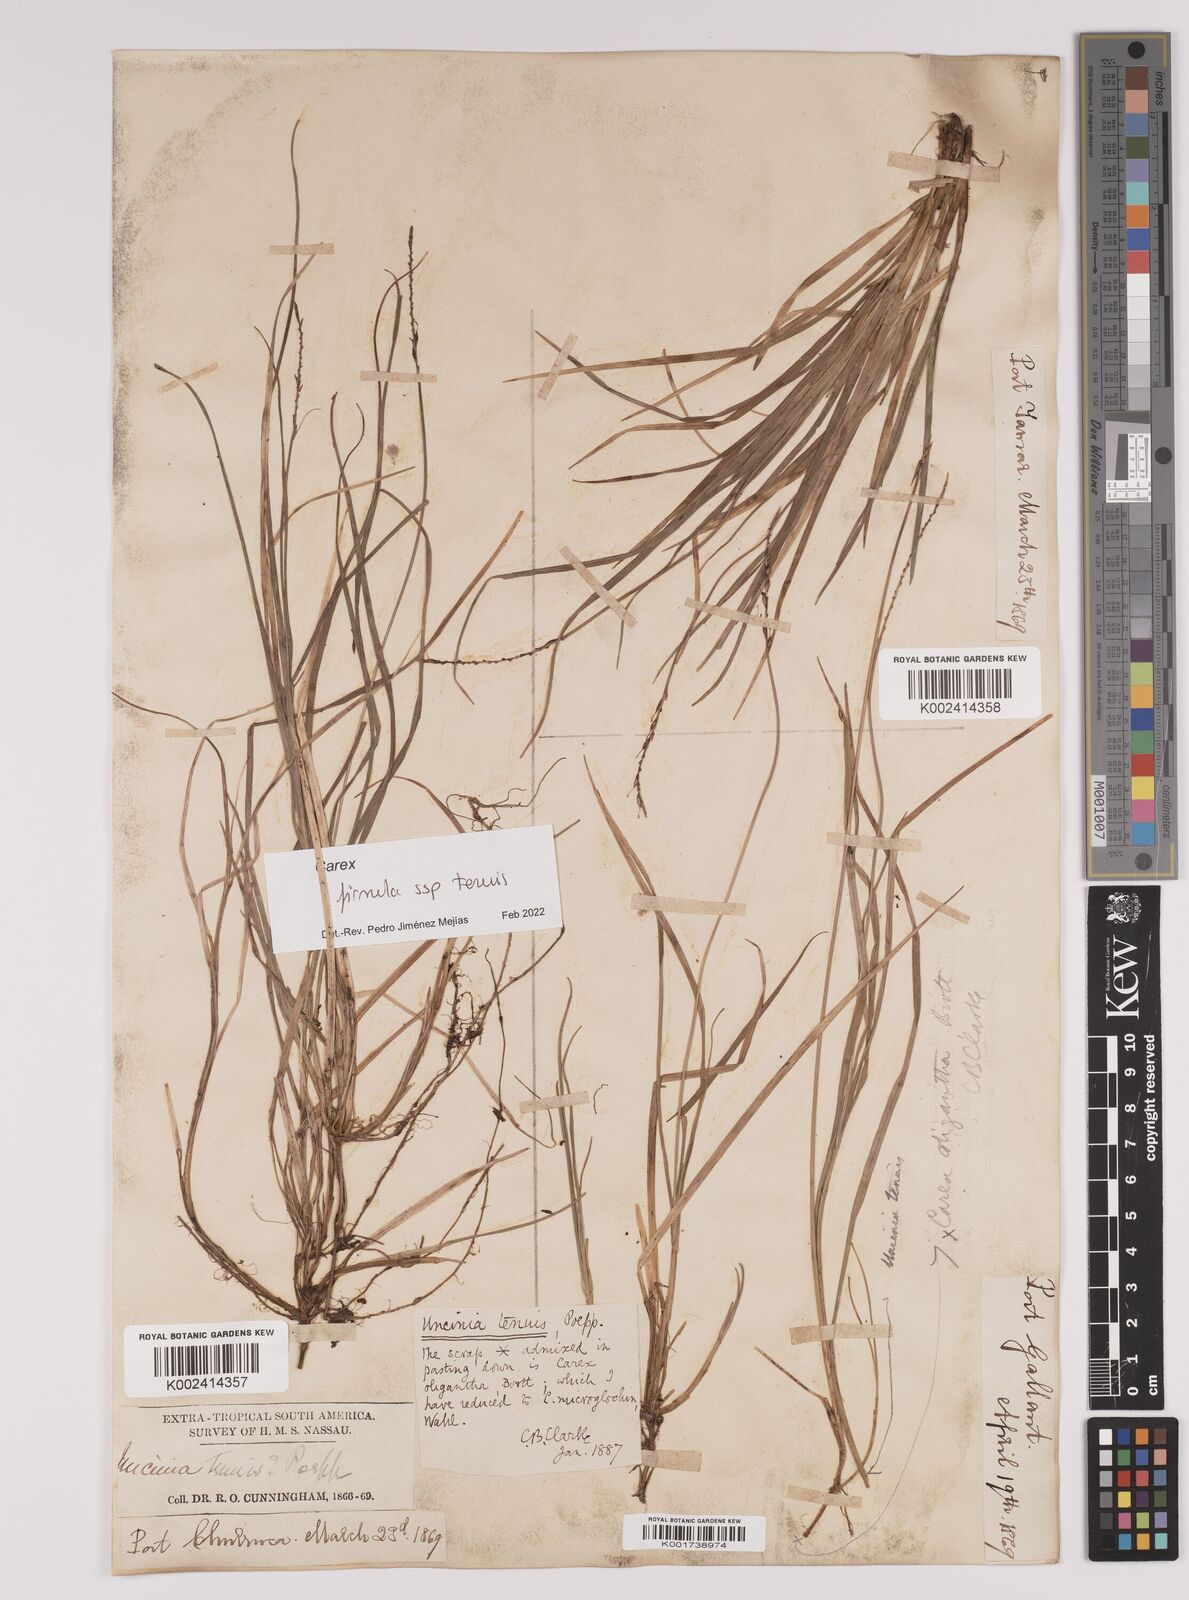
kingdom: Plantae
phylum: Tracheophyta
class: Liliopsida
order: Poales
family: Cyperaceae
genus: Carex
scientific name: Carex firmula
